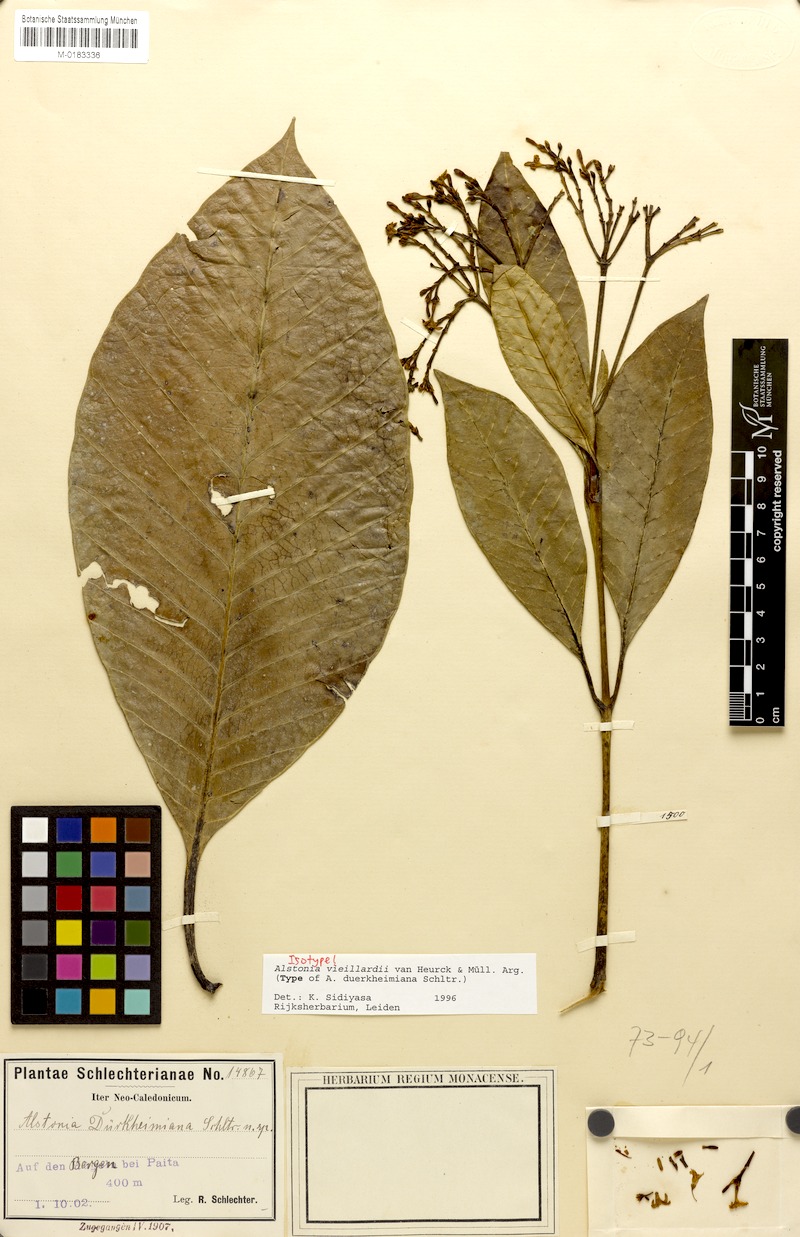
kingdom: Plantae
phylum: Tracheophyta
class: Magnoliopsida
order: Gentianales
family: Apocynaceae
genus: Alstonia
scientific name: Alstonia vieillardii
